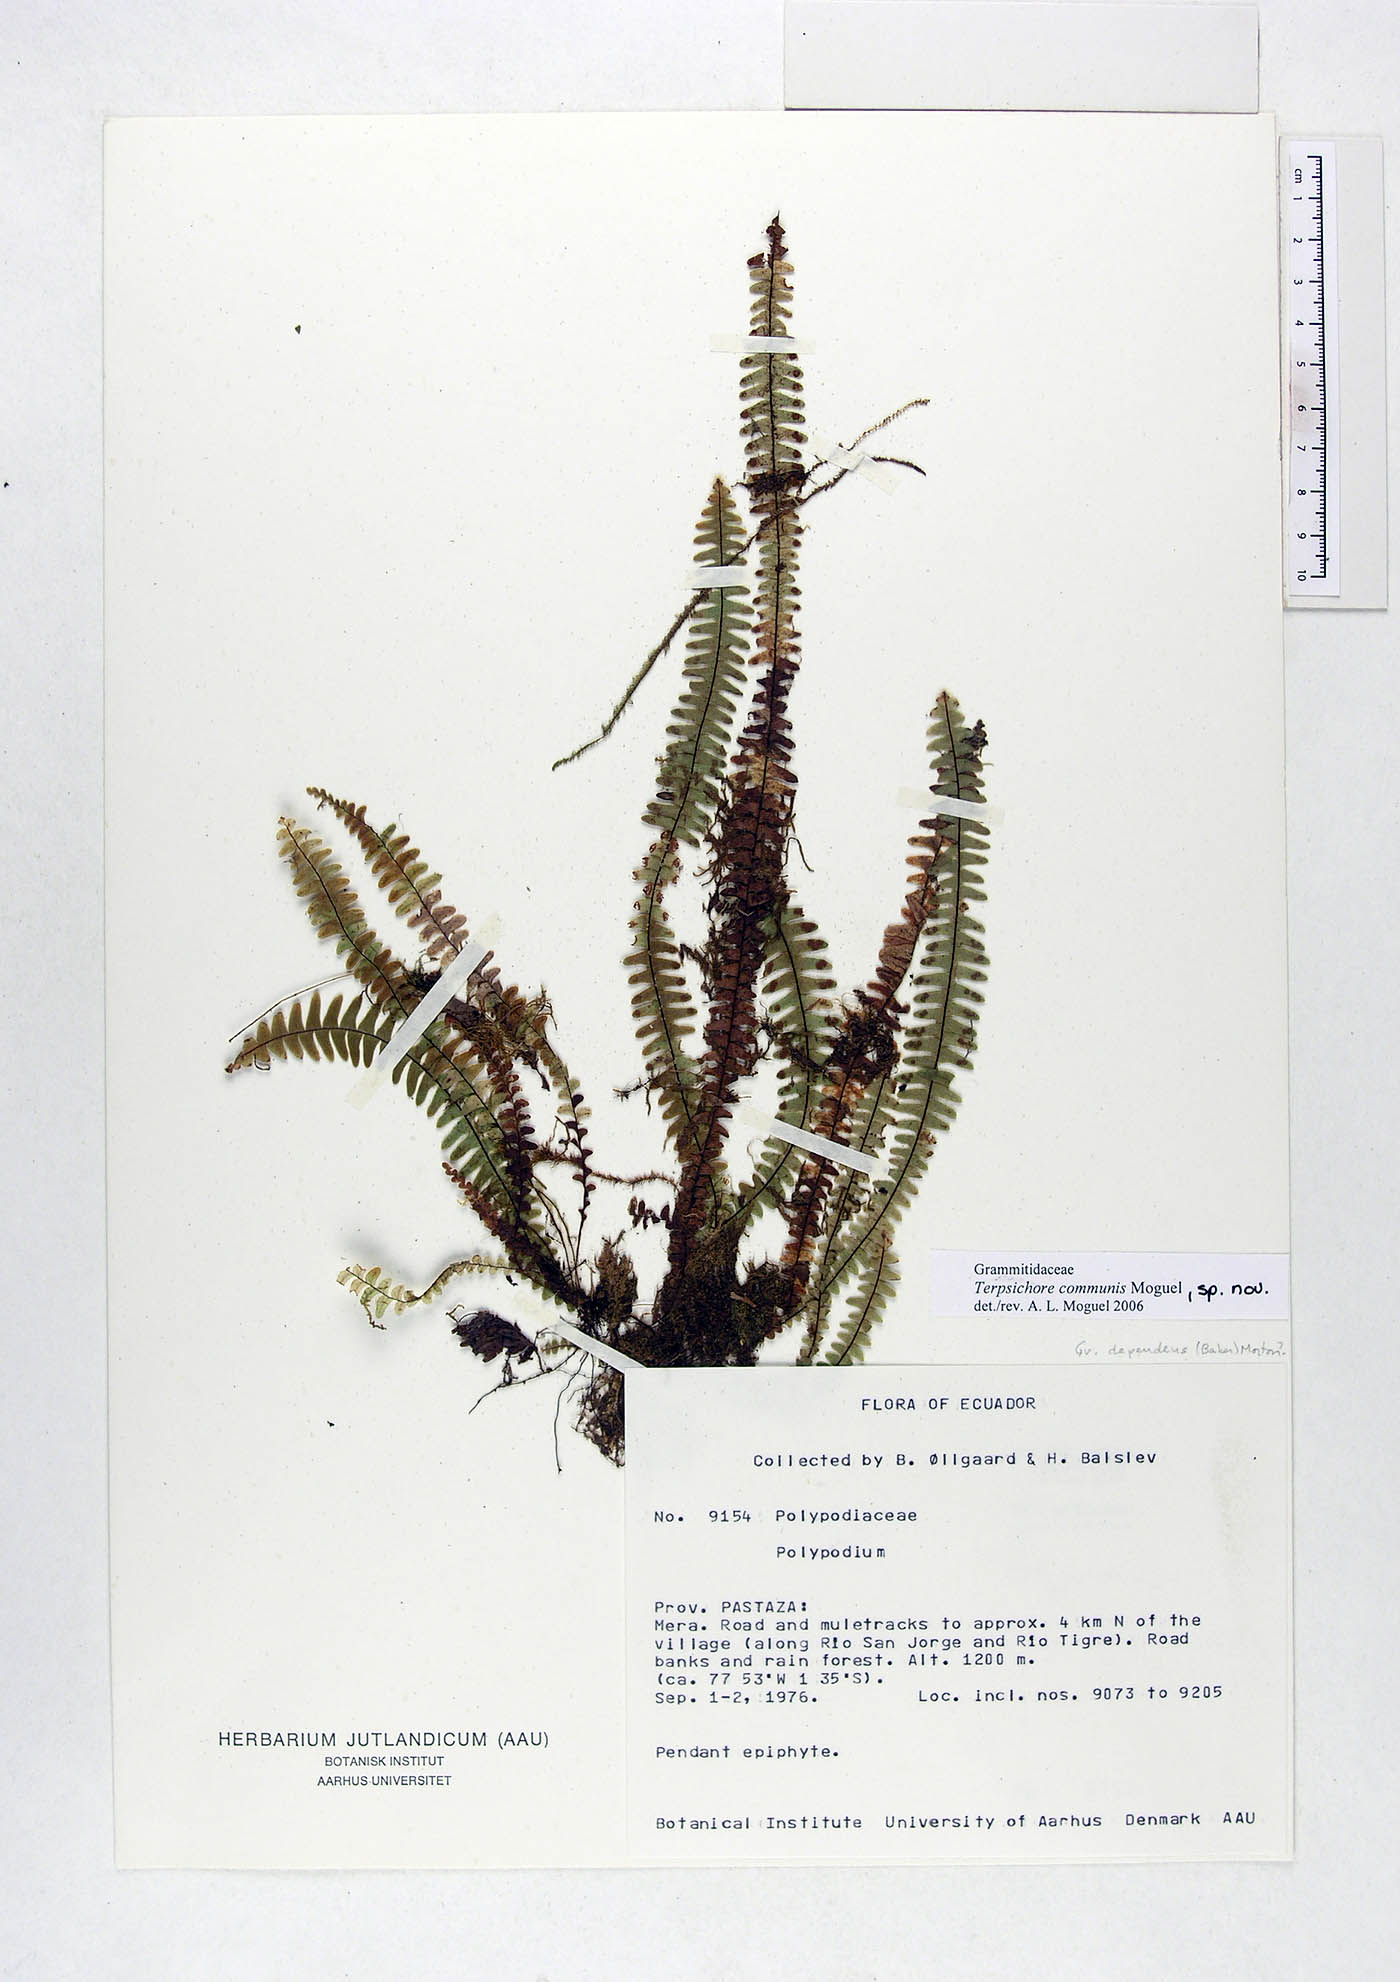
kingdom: Plantae
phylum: Tracheophyta
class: Polypodiopsida
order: Polypodiales
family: Polypodiaceae
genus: Terpsichore
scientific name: Terpsichore communis
